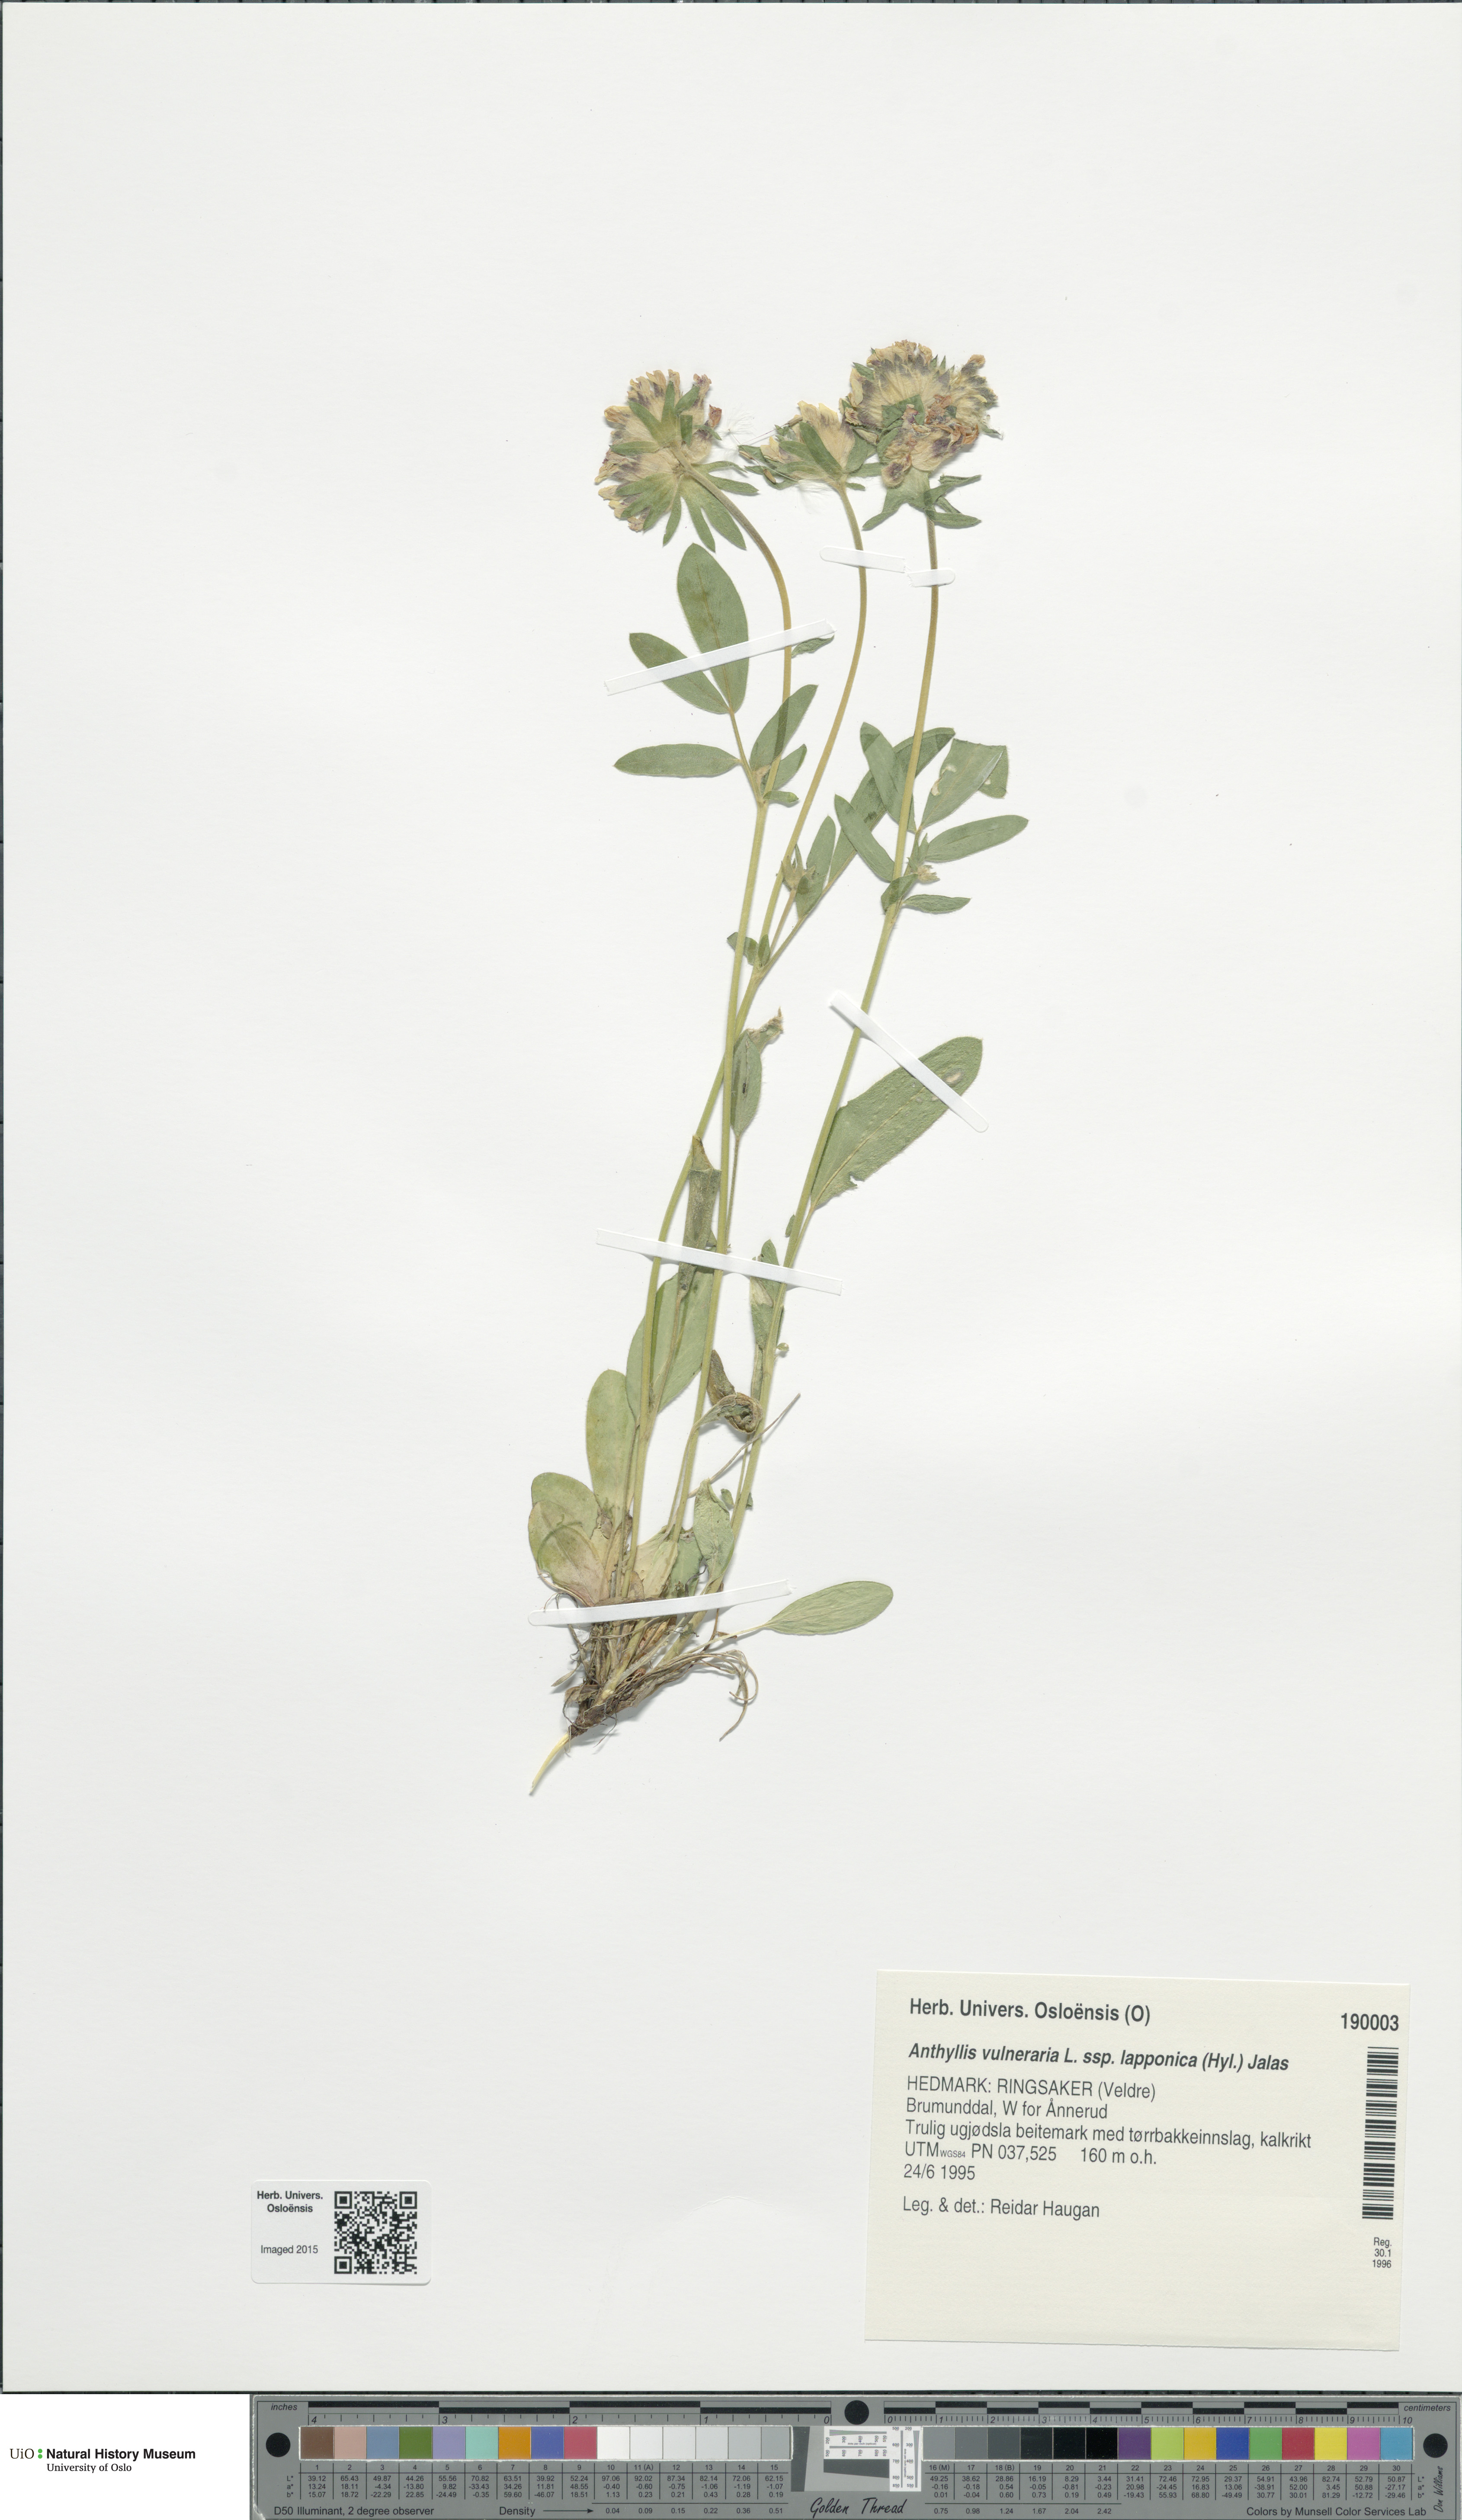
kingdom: Plantae
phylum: Tracheophyta
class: Magnoliopsida
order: Fabales
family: Fabaceae
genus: Anthyllis
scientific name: Anthyllis vulneraria
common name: Kidney vetch
